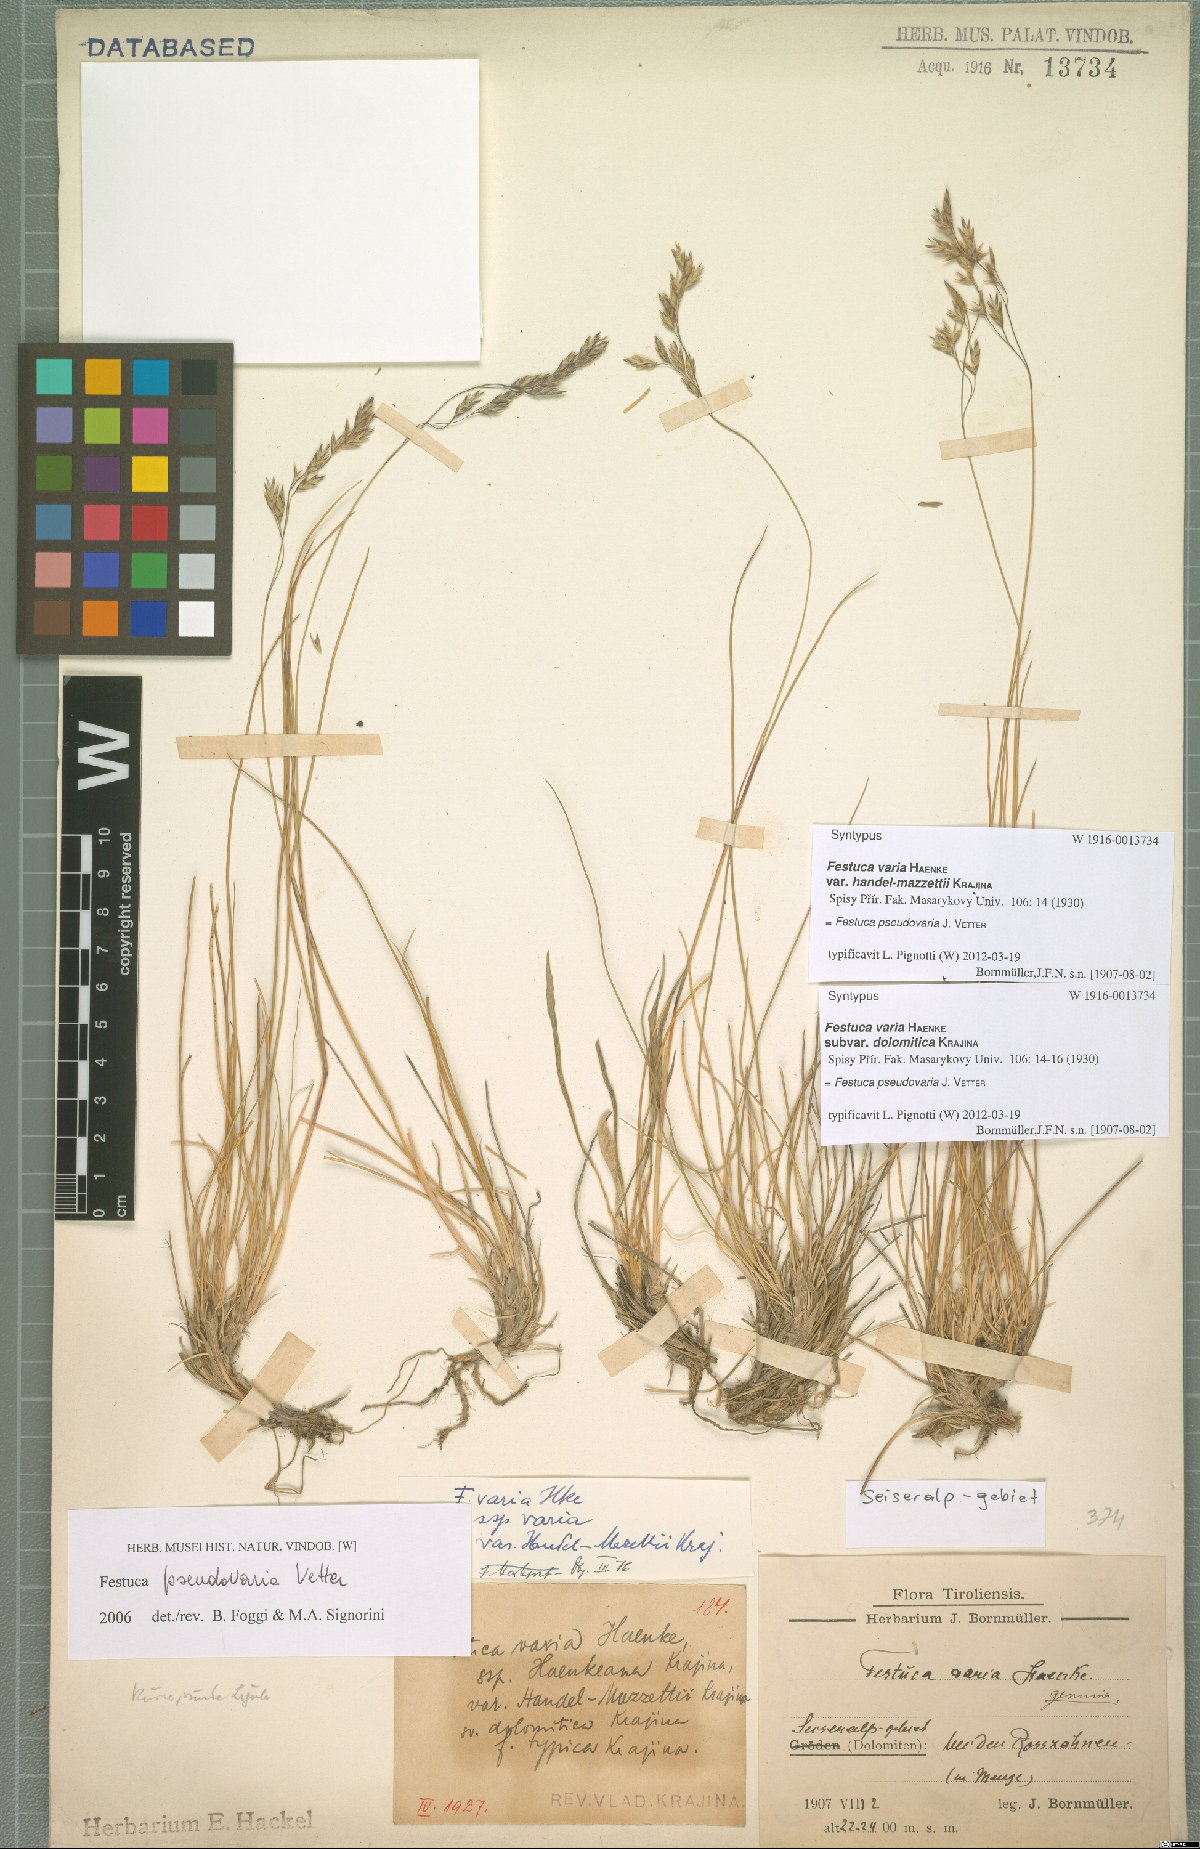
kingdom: Plantae
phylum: Tracheophyta
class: Liliopsida
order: Poales
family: Poaceae
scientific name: Poaceae
